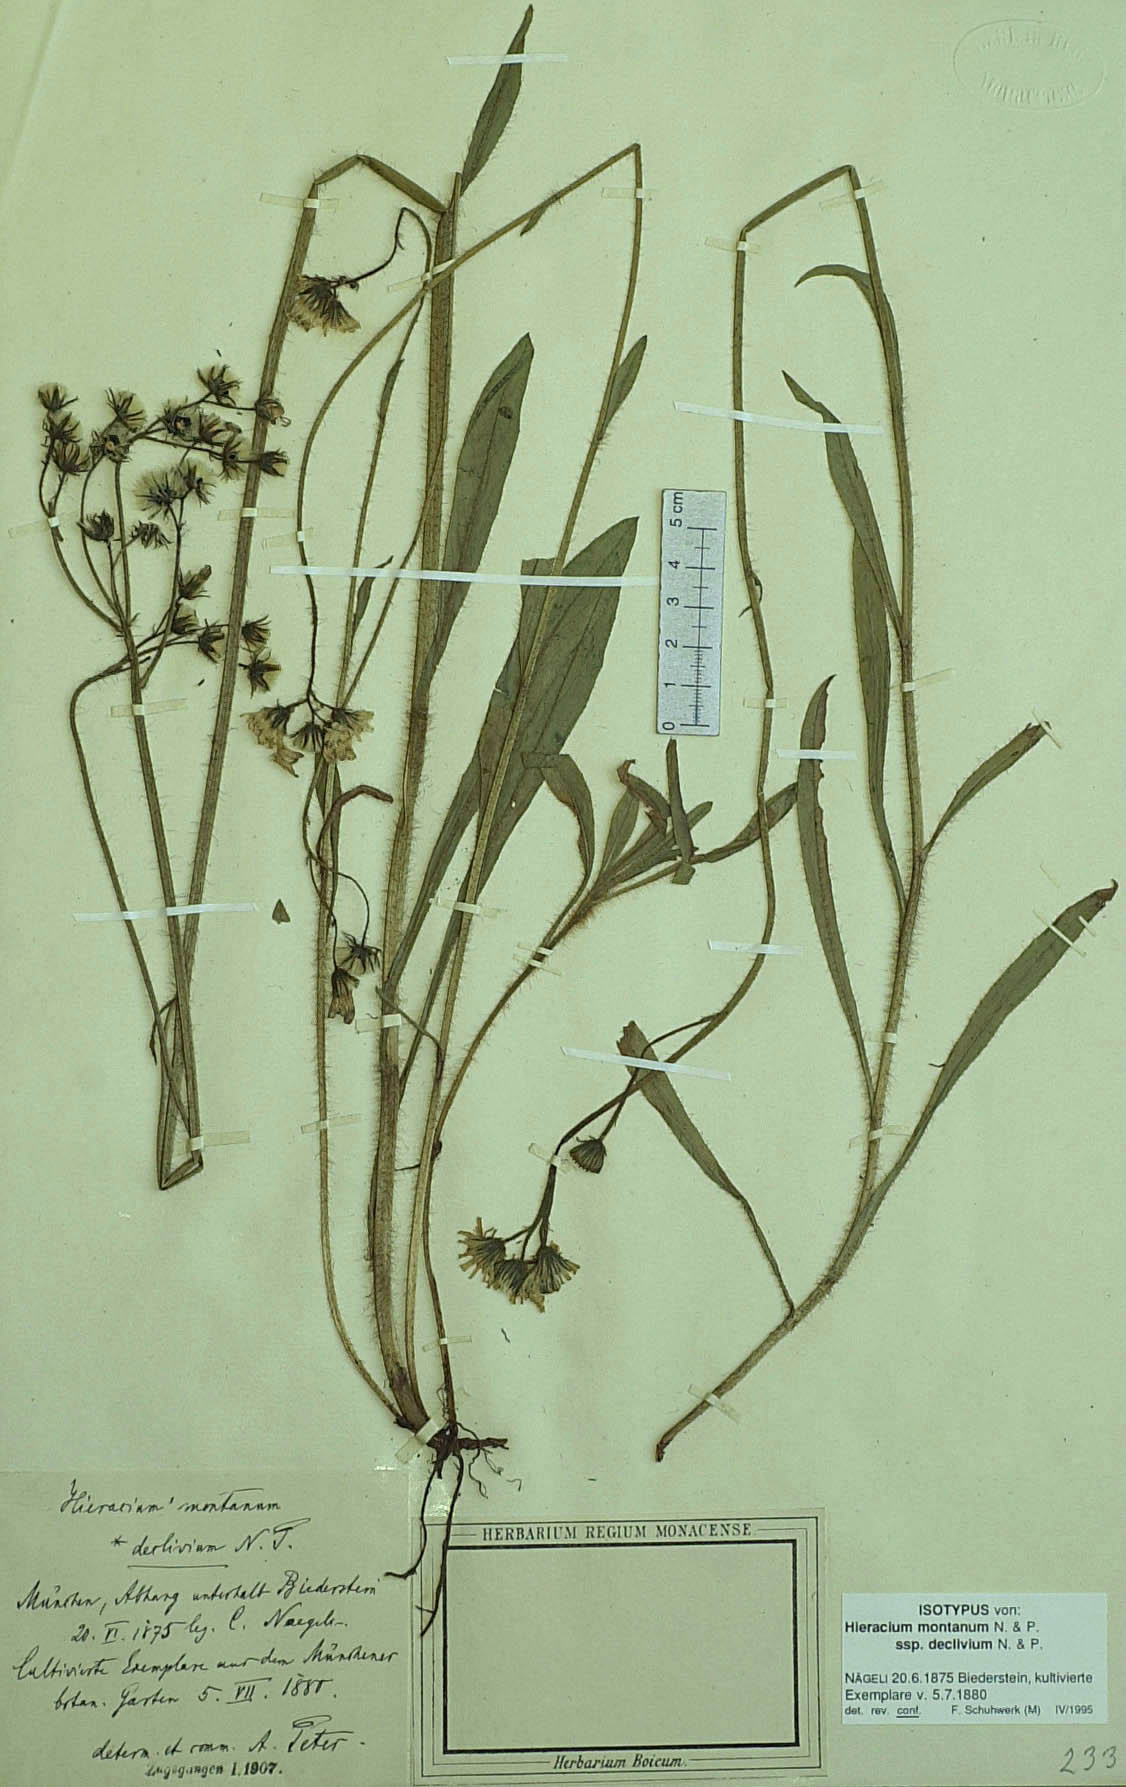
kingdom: Plantae
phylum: Tracheophyta
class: Magnoliopsida
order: Asterales
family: Asteraceae
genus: Pilosella
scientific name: Pilosella chomatophila
